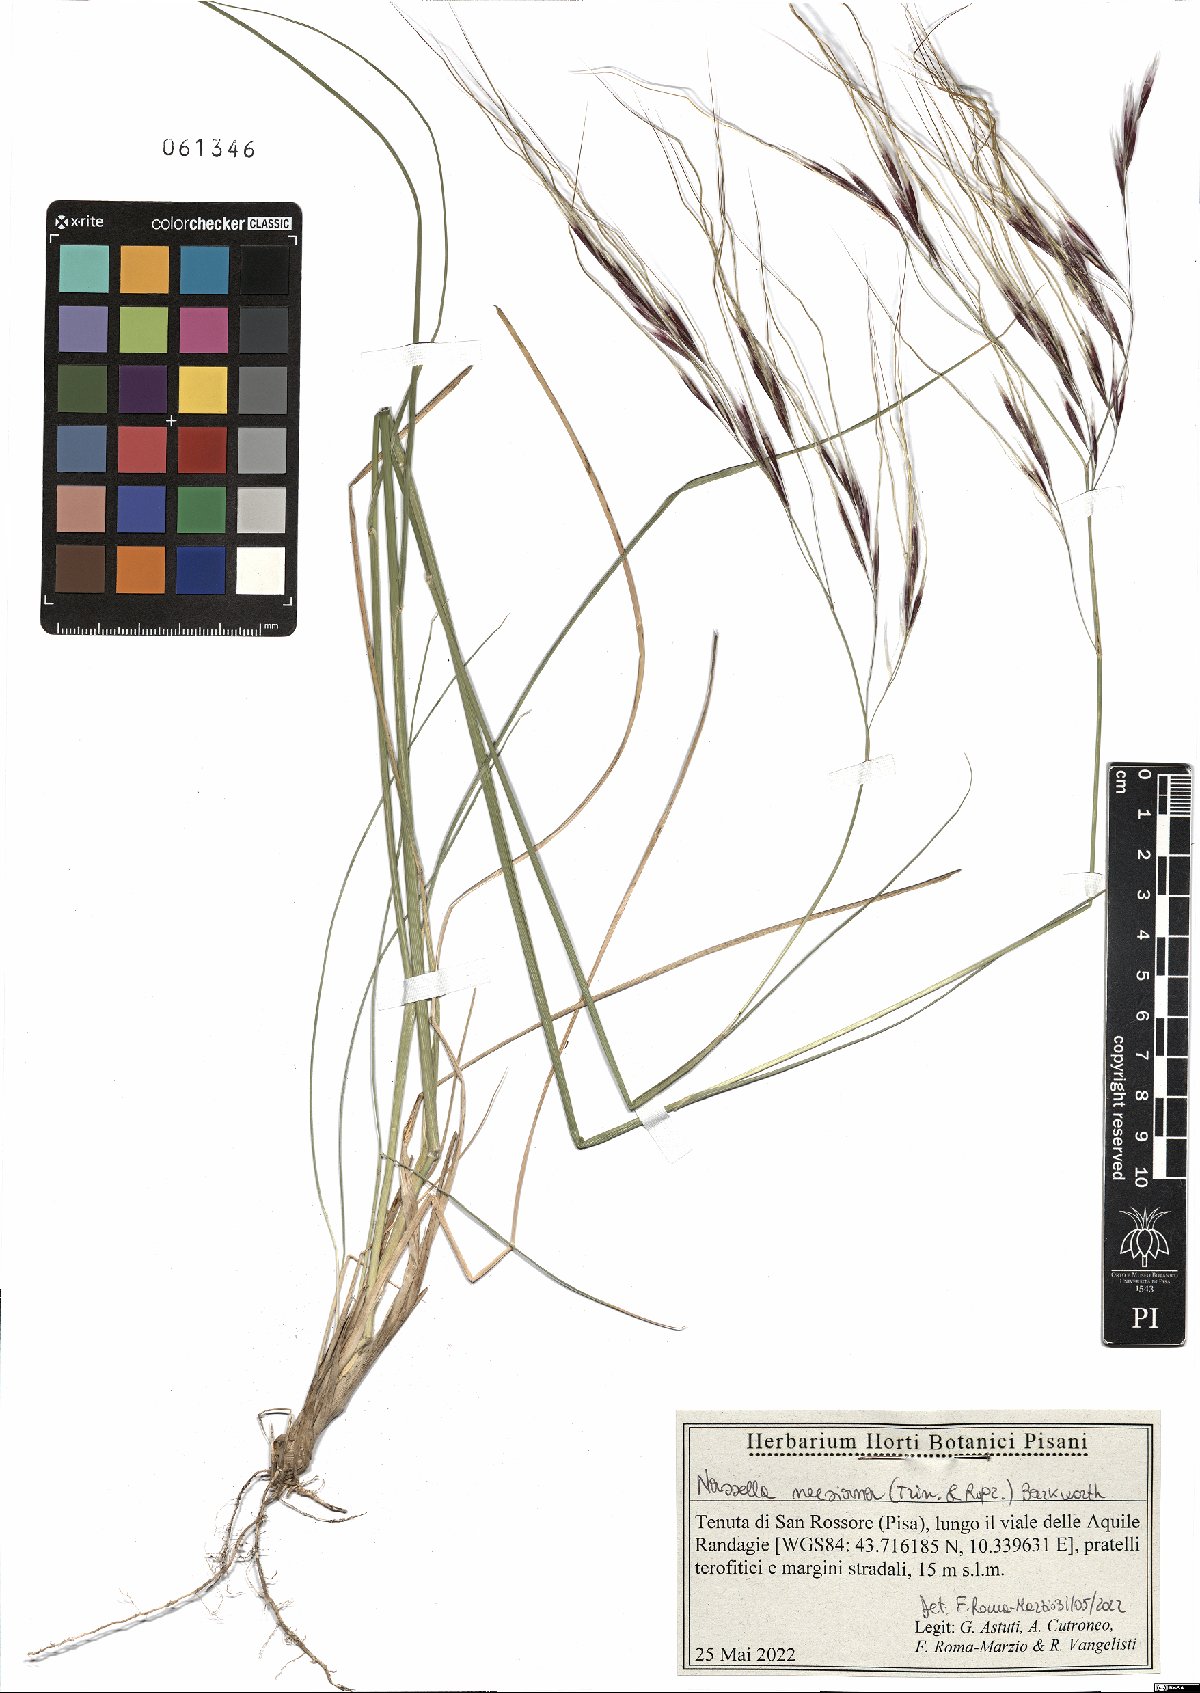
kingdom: Plantae
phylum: Tracheophyta
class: Liliopsida
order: Poales
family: Poaceae
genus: Nassella
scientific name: Nassella neesiana
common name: American needle-grass
